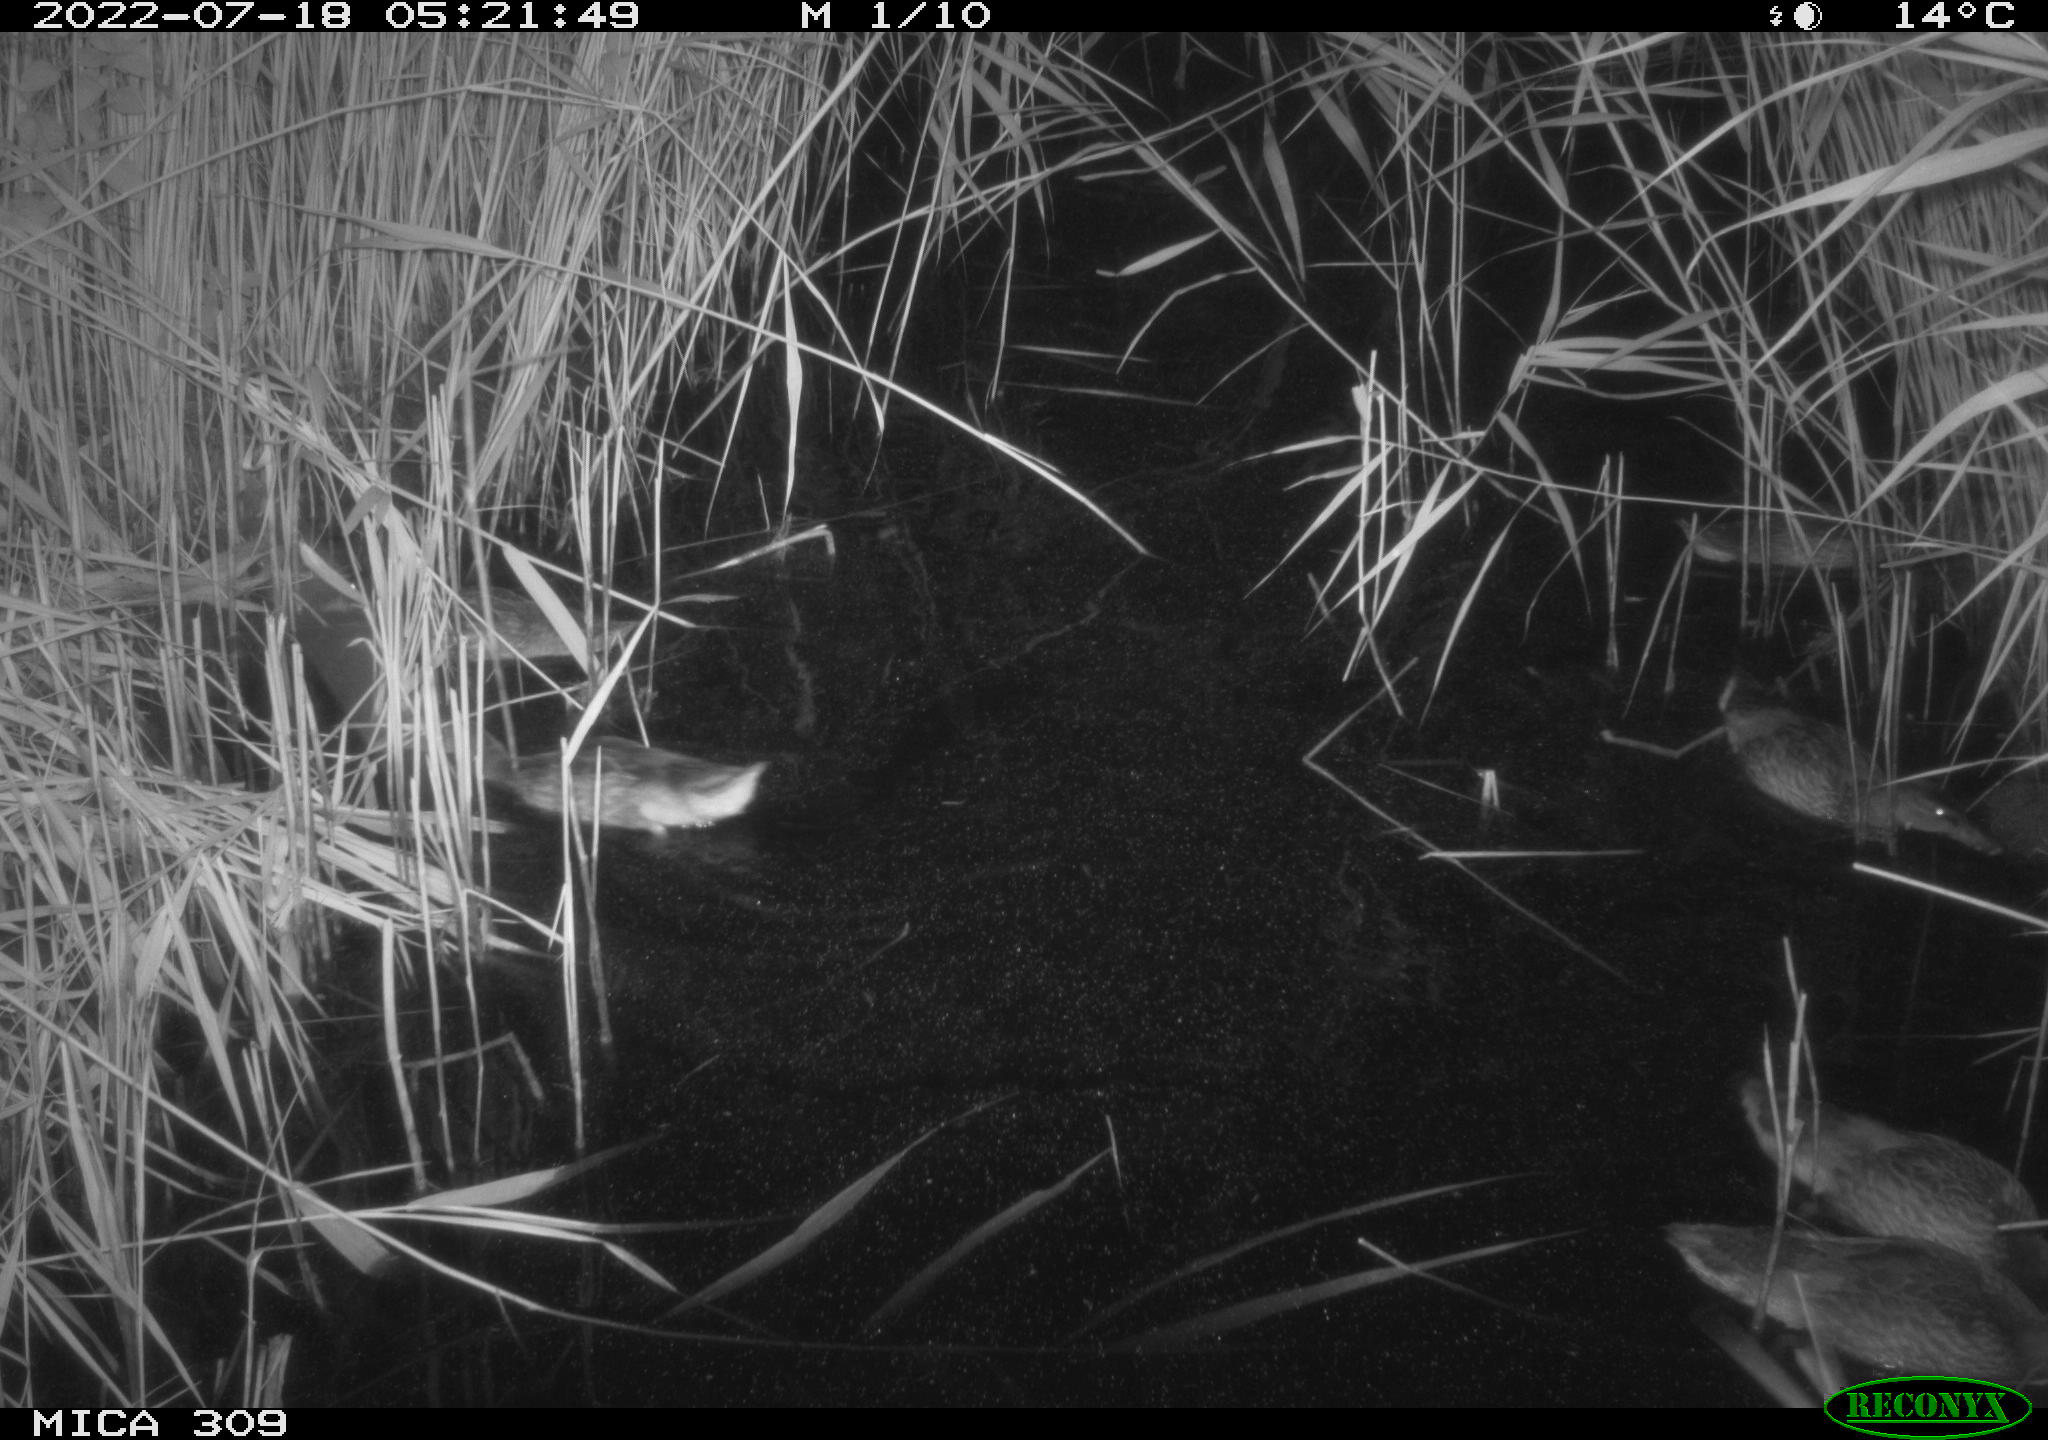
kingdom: Animalia
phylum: Chordata
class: Aves
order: Anseriformes
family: Anatidae
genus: Anas
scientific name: Anas platyrhynchos
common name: Mallard
